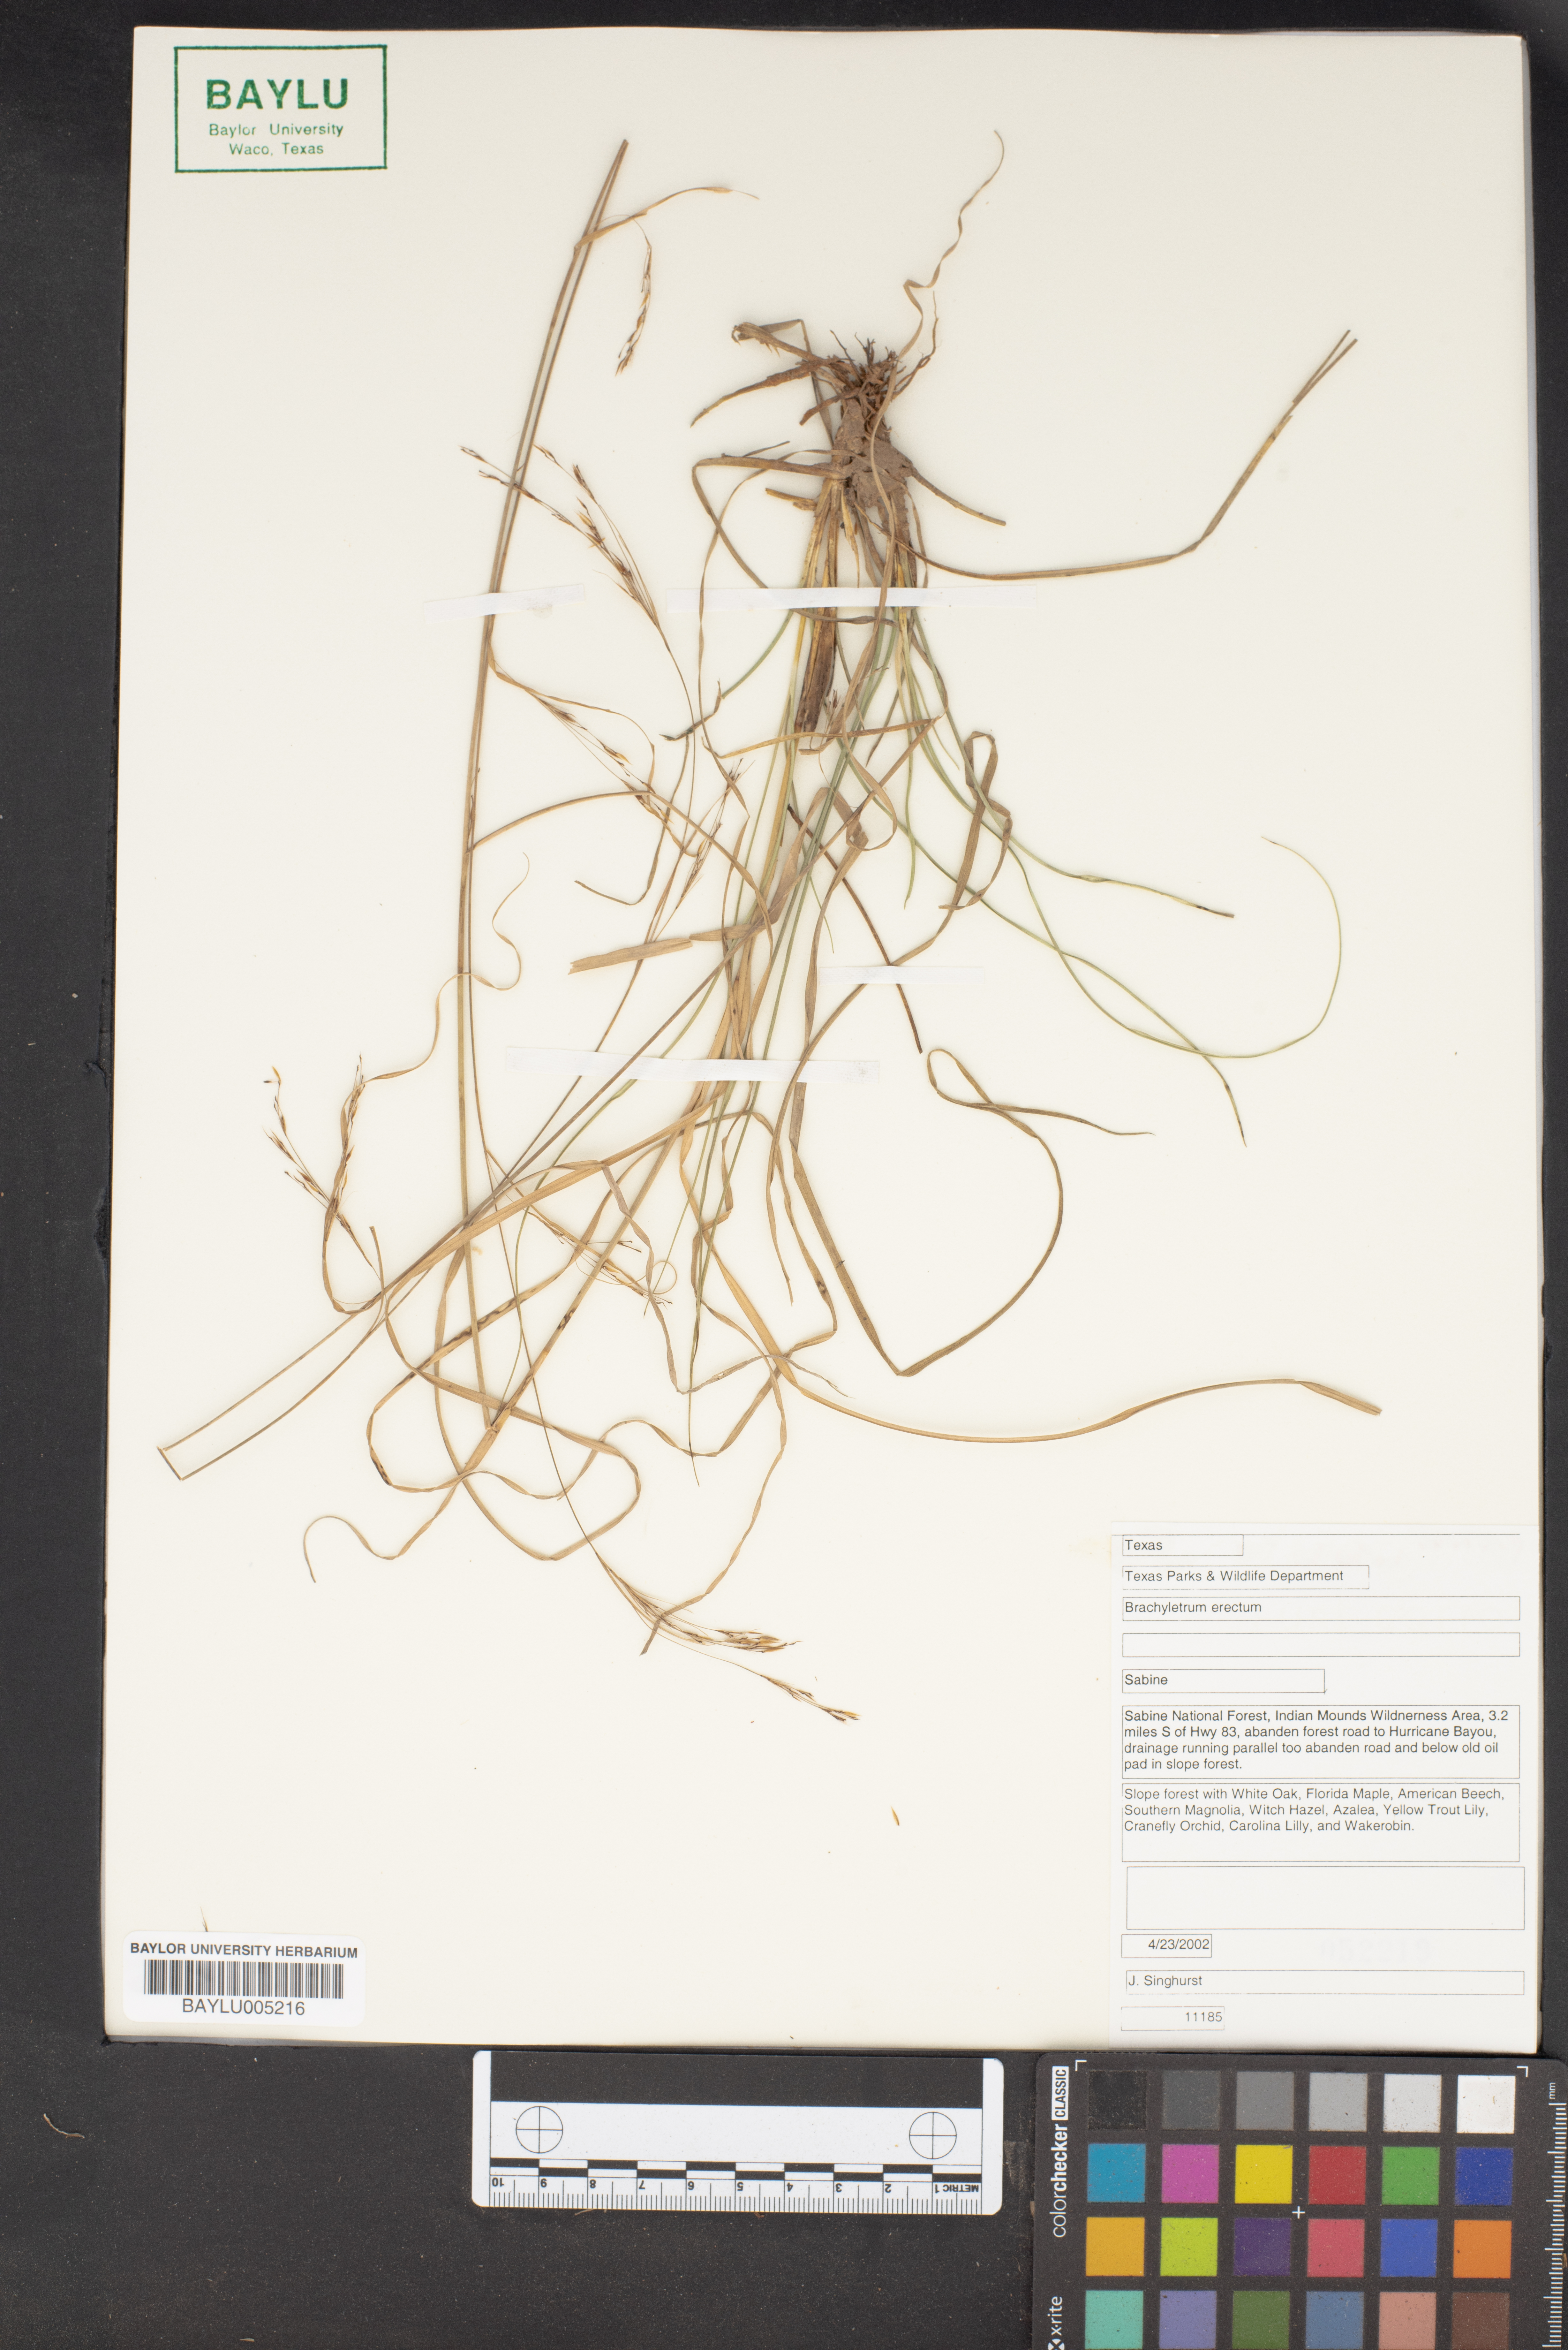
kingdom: Plantae
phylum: Tracheophyta
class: Liliopsida
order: Poales
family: Poaceae
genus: Brachyelytrum
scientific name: Brachyelytrum erectum
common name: Bearded shorthusk
